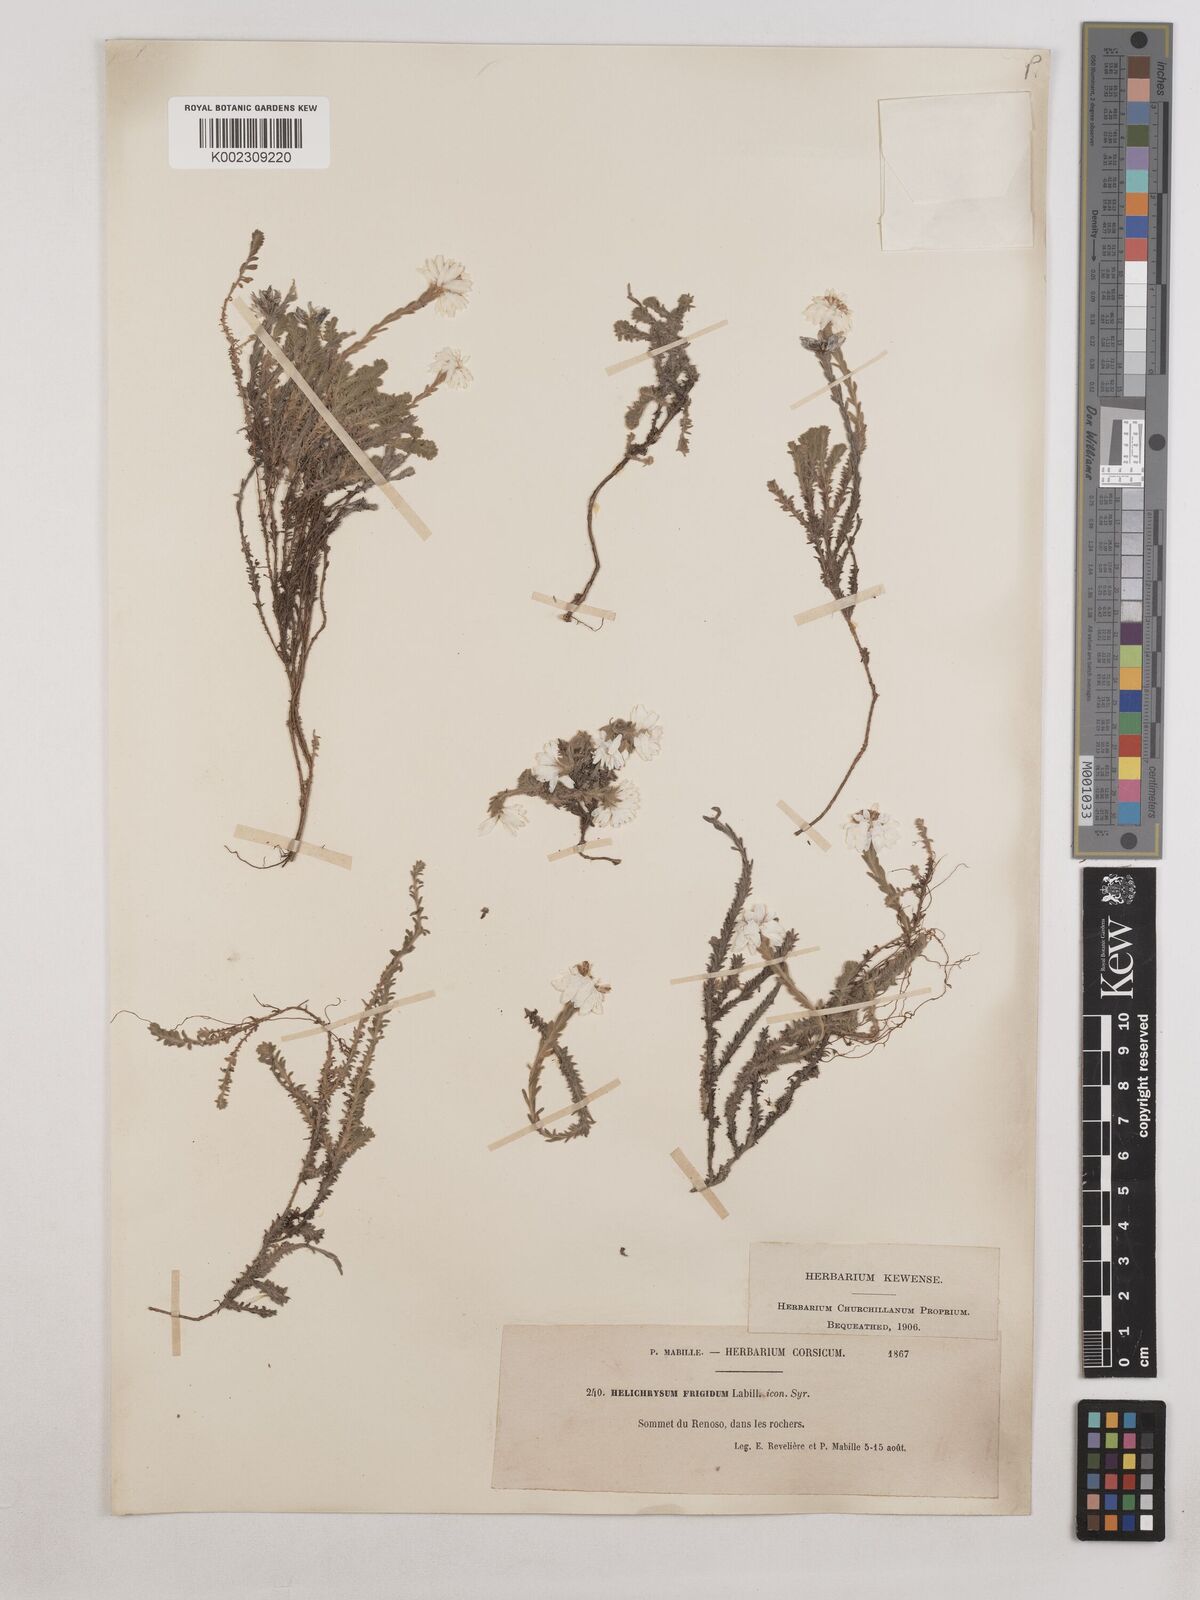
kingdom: Plantae
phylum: Tracheophyta
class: Magnoliopsida
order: Asterales
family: Asteraceae
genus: Castroviejoa
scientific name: Castroviejoa frigida
